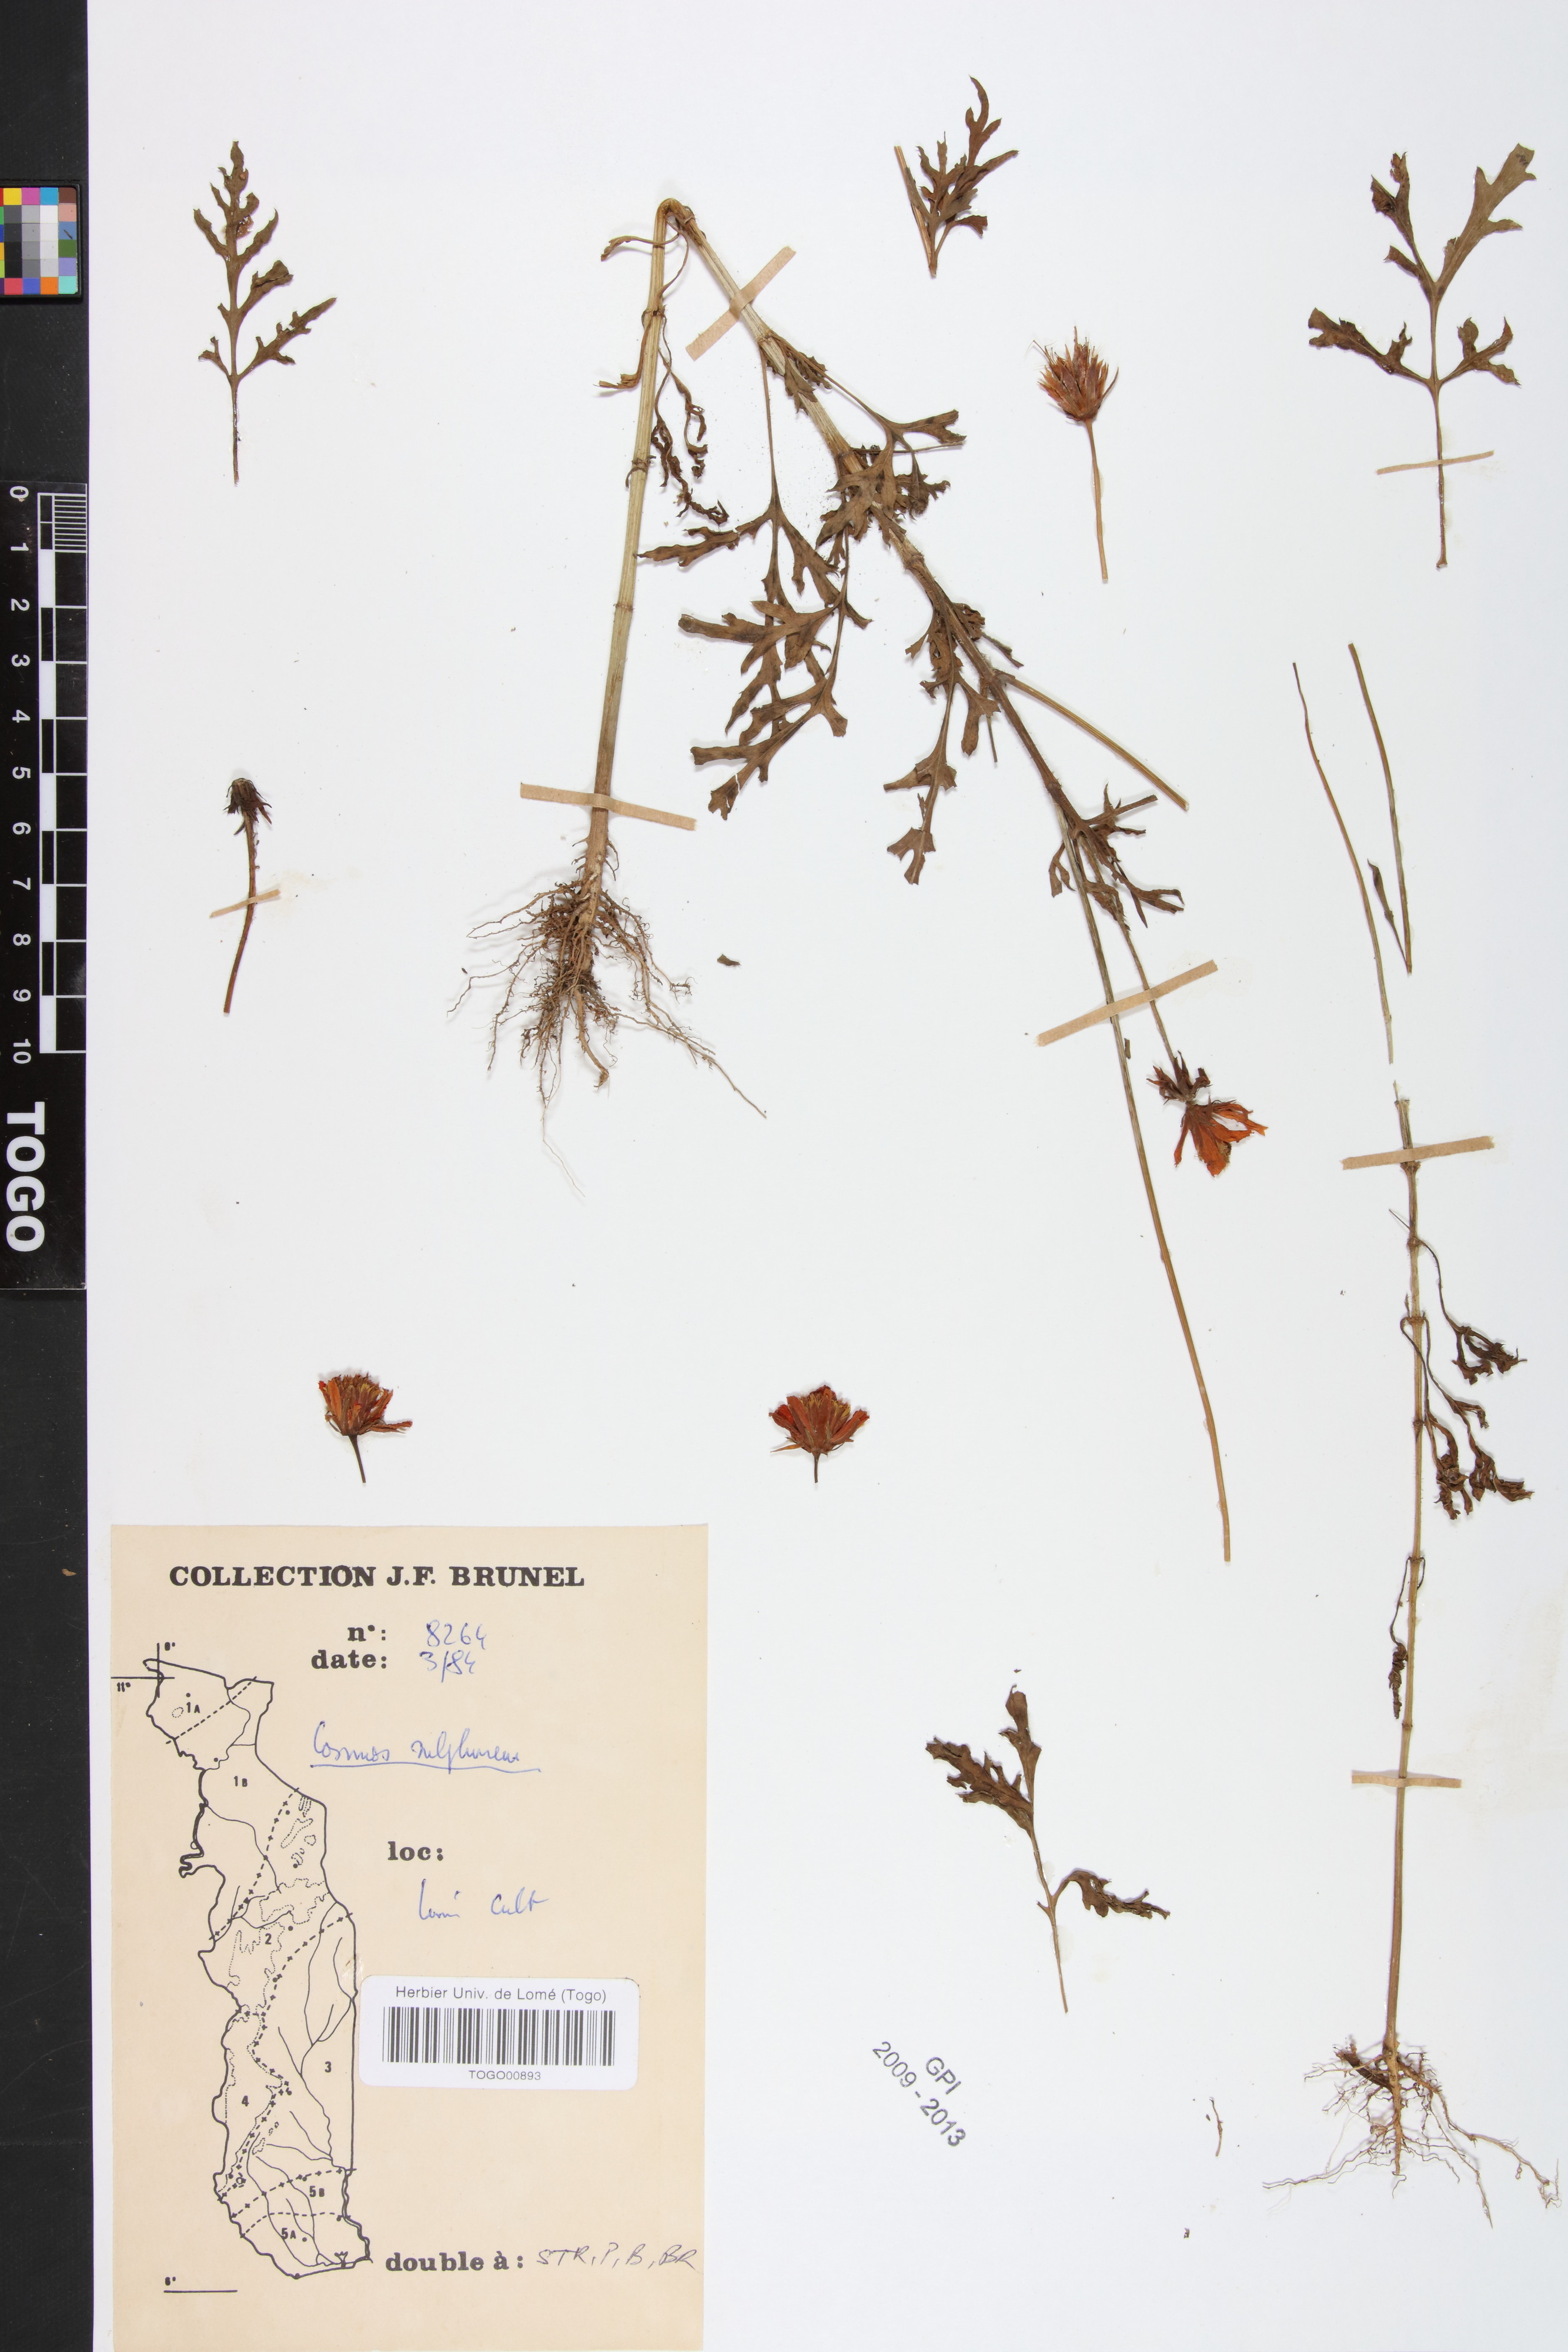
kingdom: Plantae
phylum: Tracheophyta
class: Magnoliopsida
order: Asterales
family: Asteraceae
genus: Cosmos
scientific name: Cosmos sulphureus
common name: Sulphur cosmos
